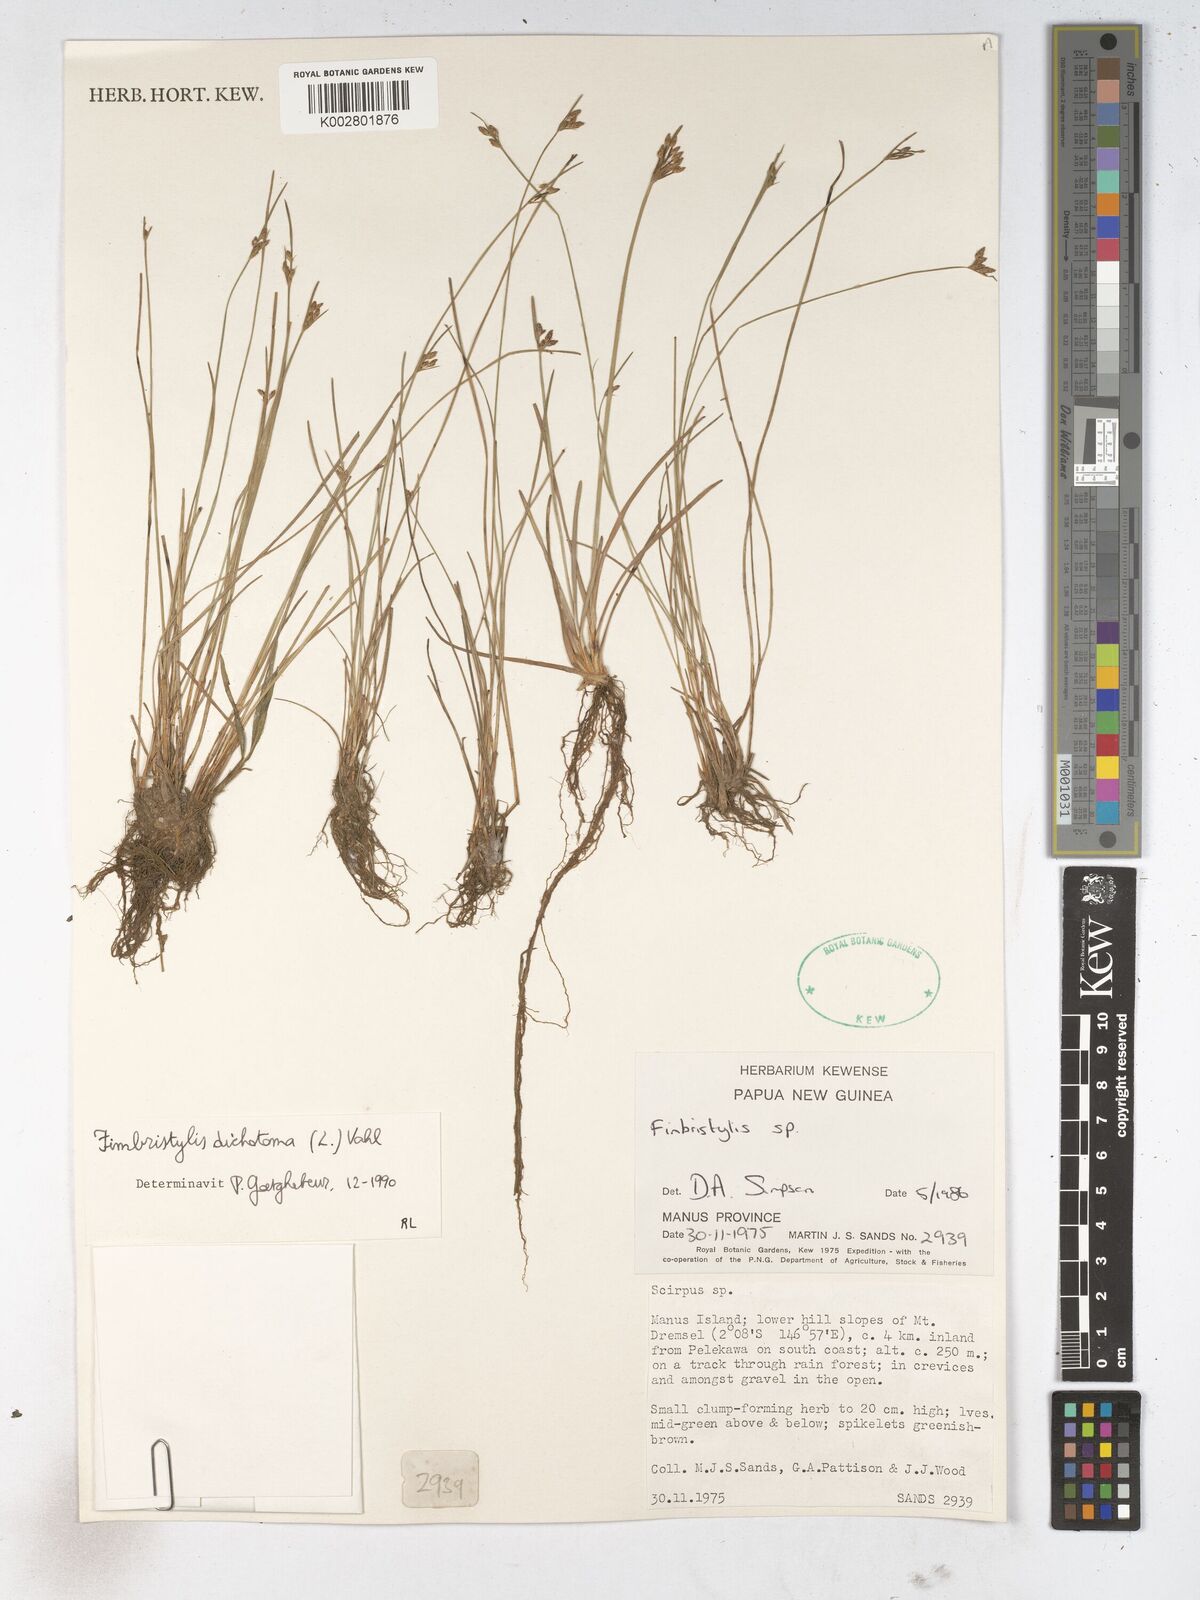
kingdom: Plantae
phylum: Tracheophyta
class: Liliopsida
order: Poales
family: Cyperaceae
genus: Fimbristylis
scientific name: Fimbristylis dichotoma
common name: Forked fimbry
